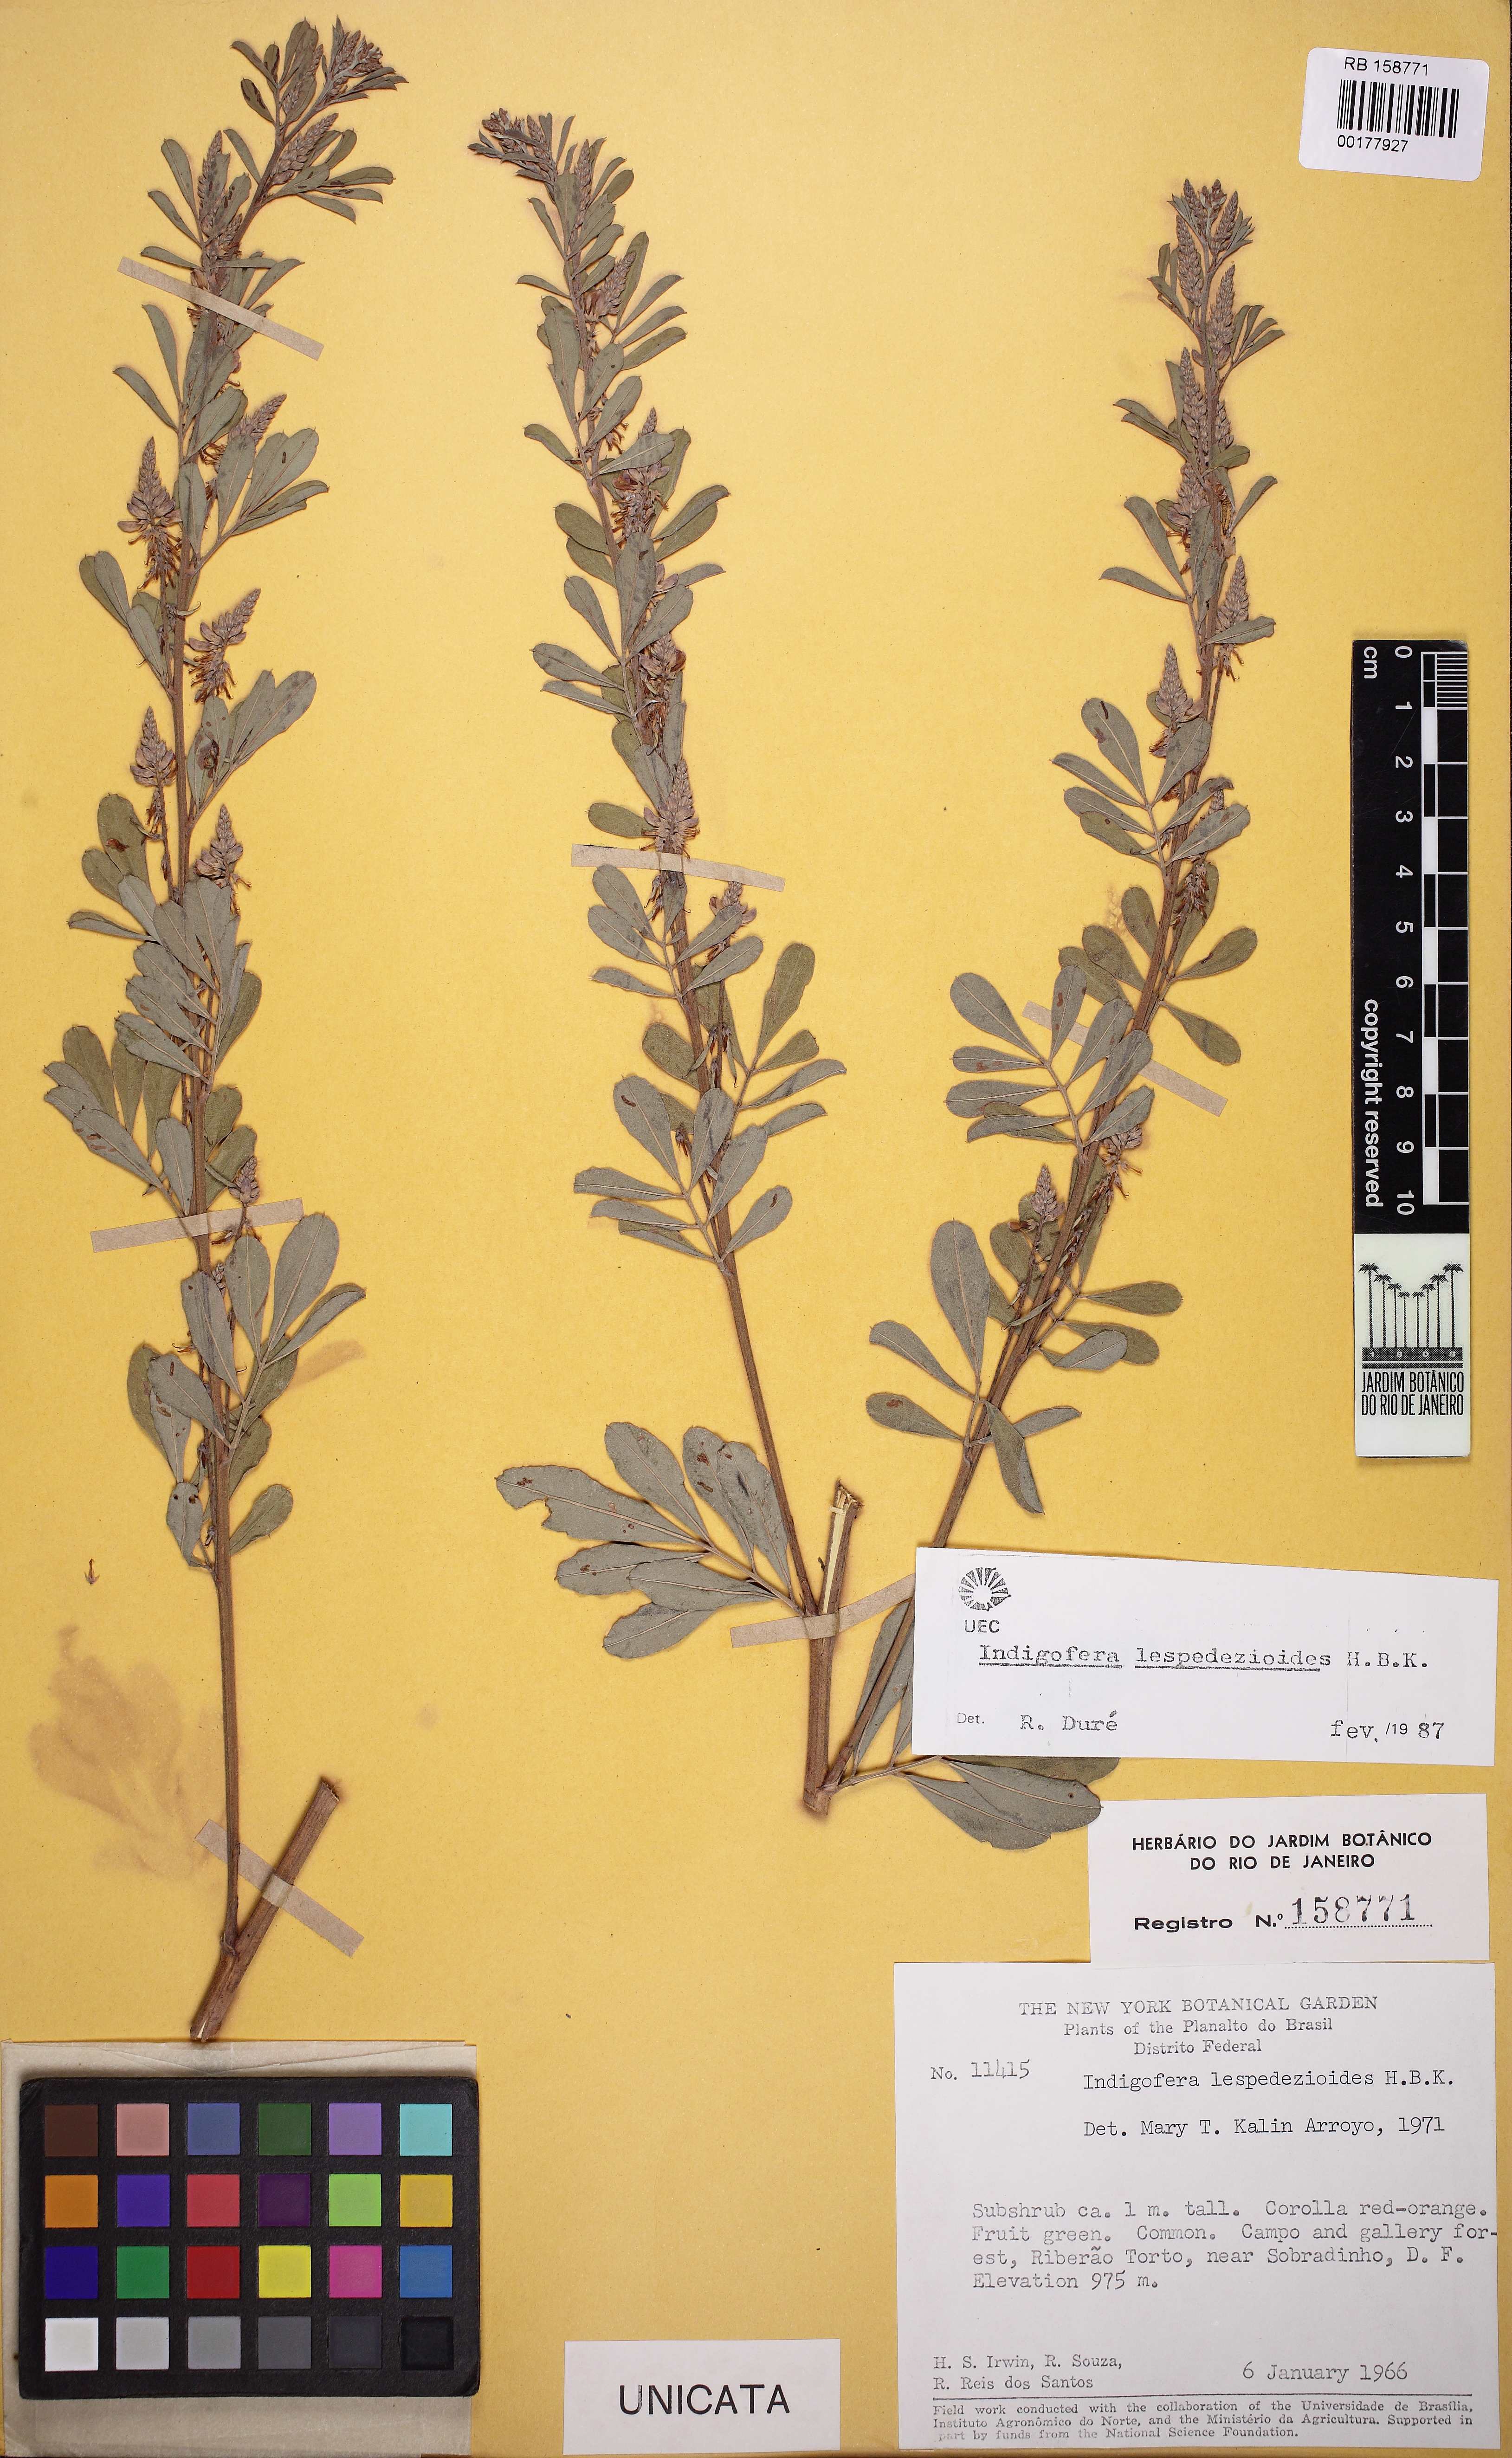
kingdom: Plantae
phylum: Tracheophyta
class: Magnoliopsida
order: Fabales
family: Fabaceae
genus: Indigofera
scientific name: Indigofera lespedezioides
